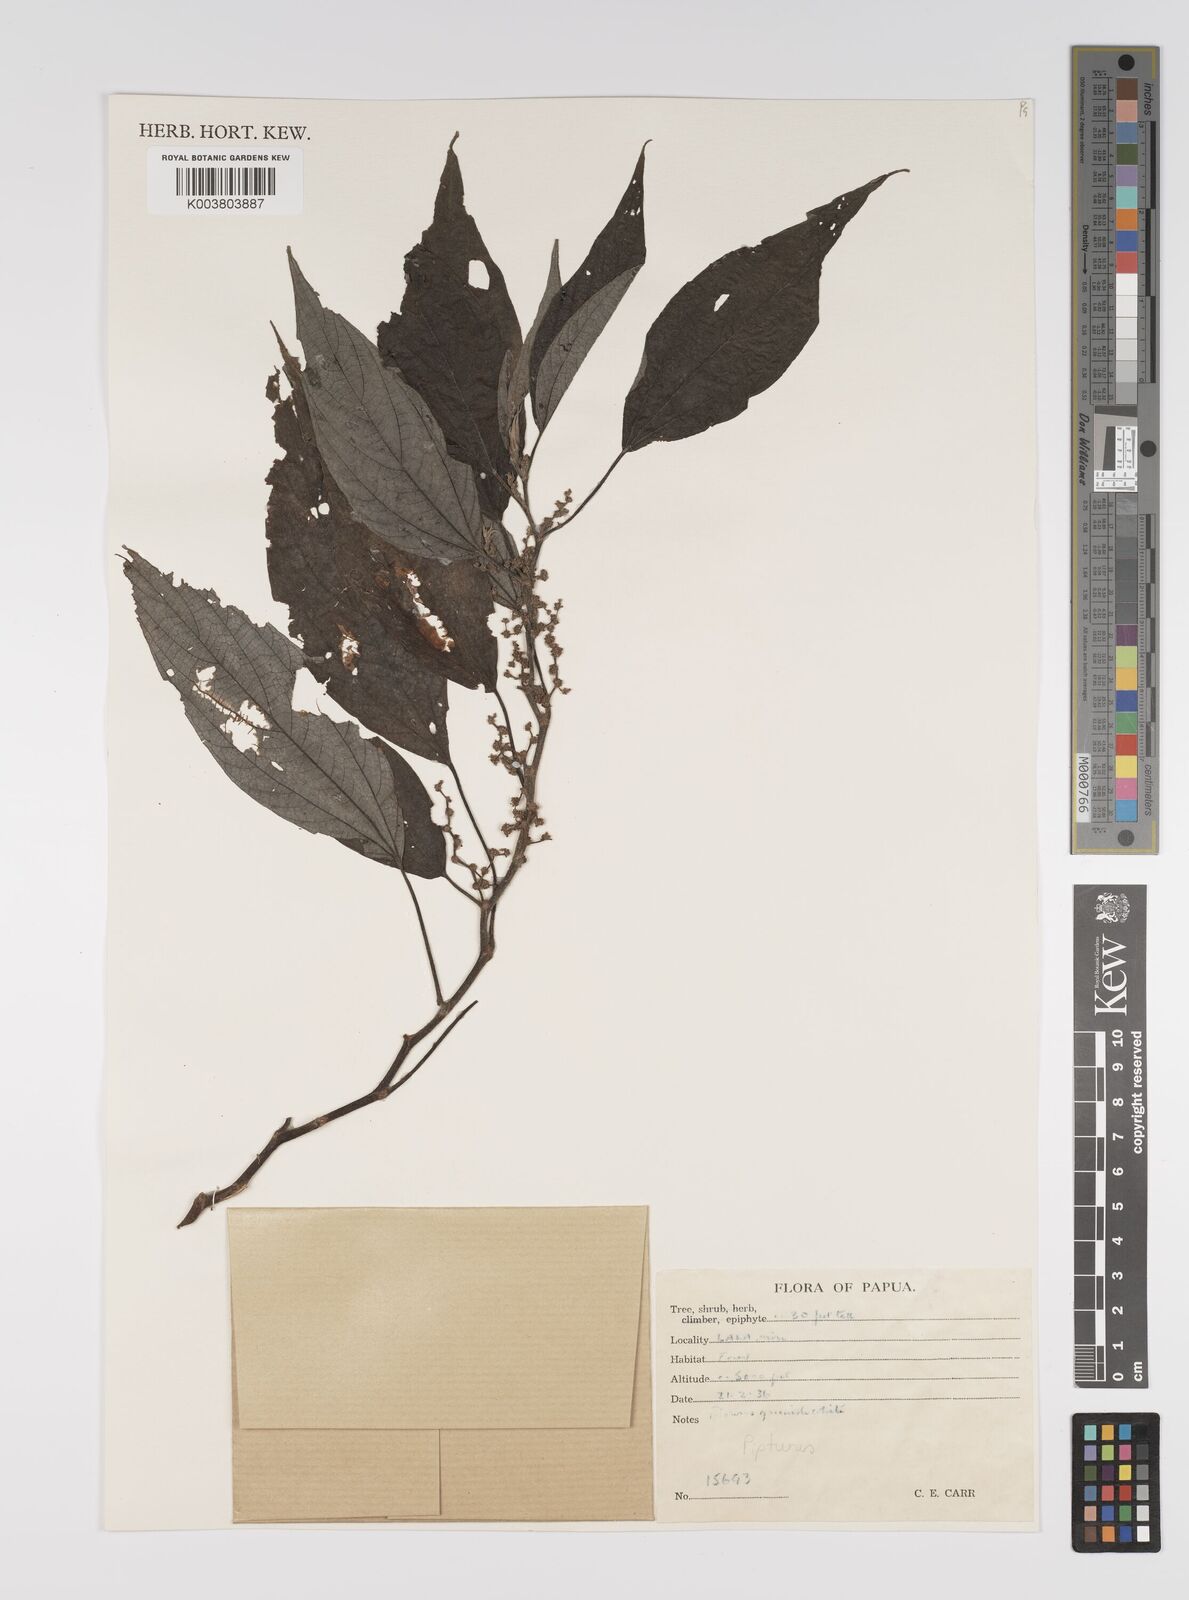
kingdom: Plantae
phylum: Tracheophyta
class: Magnoliopsida
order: Rosales
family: Urticaceae
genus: Pipturus
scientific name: Pipturus argenteus
